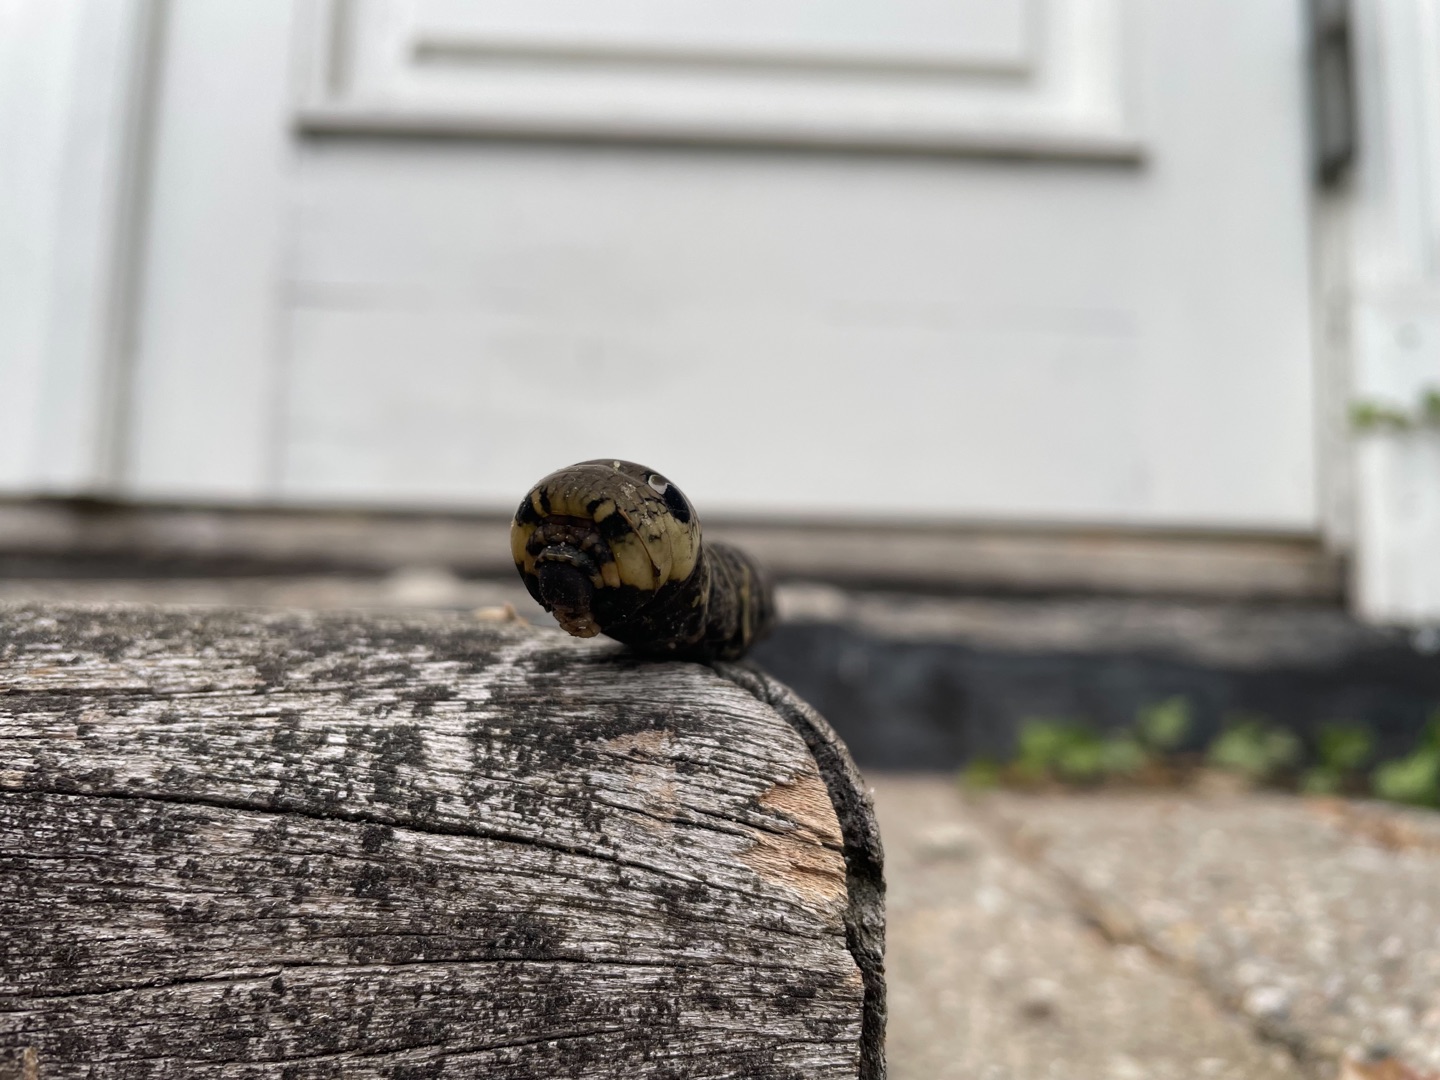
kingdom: Animalia
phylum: Arthropoda
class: Insecta
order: Lepidoptera
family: Sphingidae
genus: Deilephila
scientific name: Deilephila elpenor
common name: Dueurtsværmer
